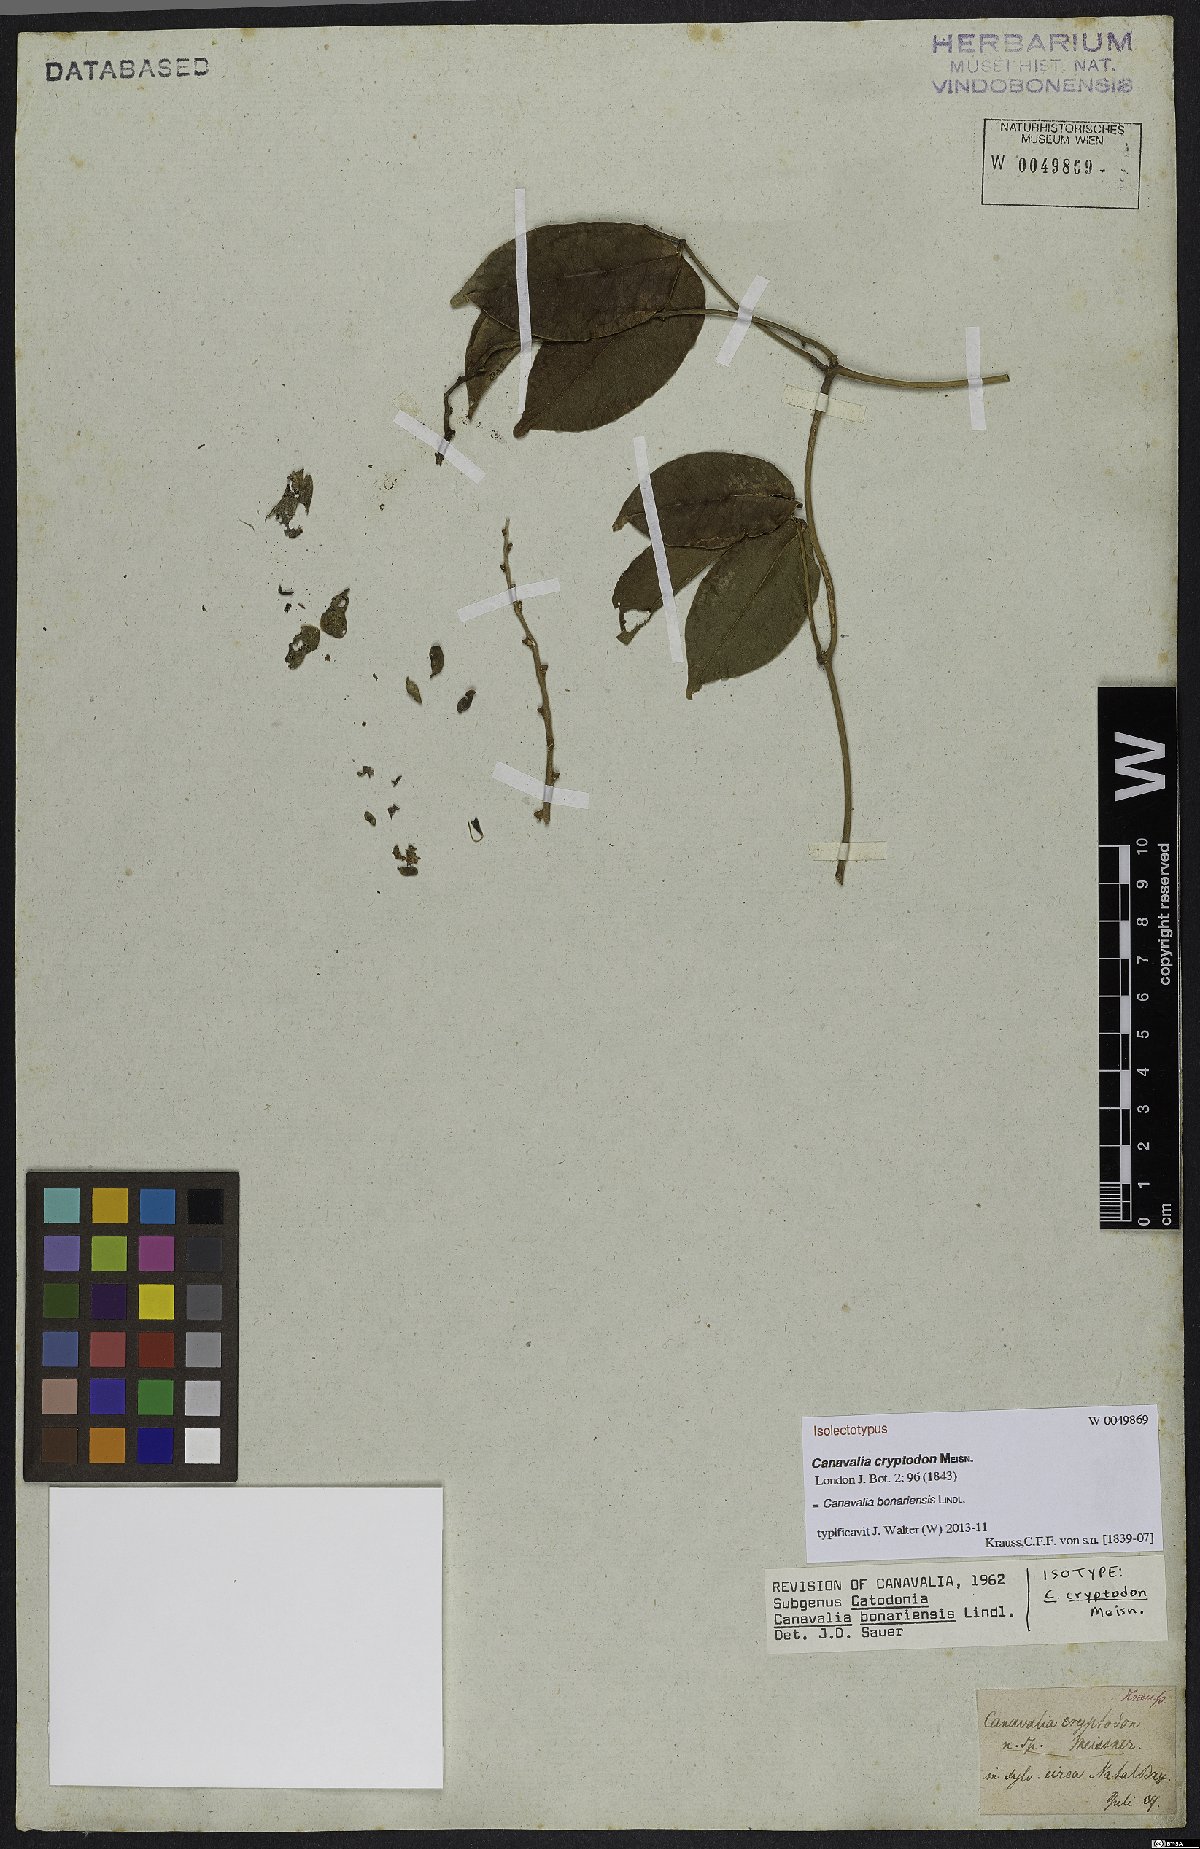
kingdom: Plantae
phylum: Tracheophyta
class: Magnoliopsida
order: Fabales
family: Fabaceae
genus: Canavalia
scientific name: Canavalia bonariensis
